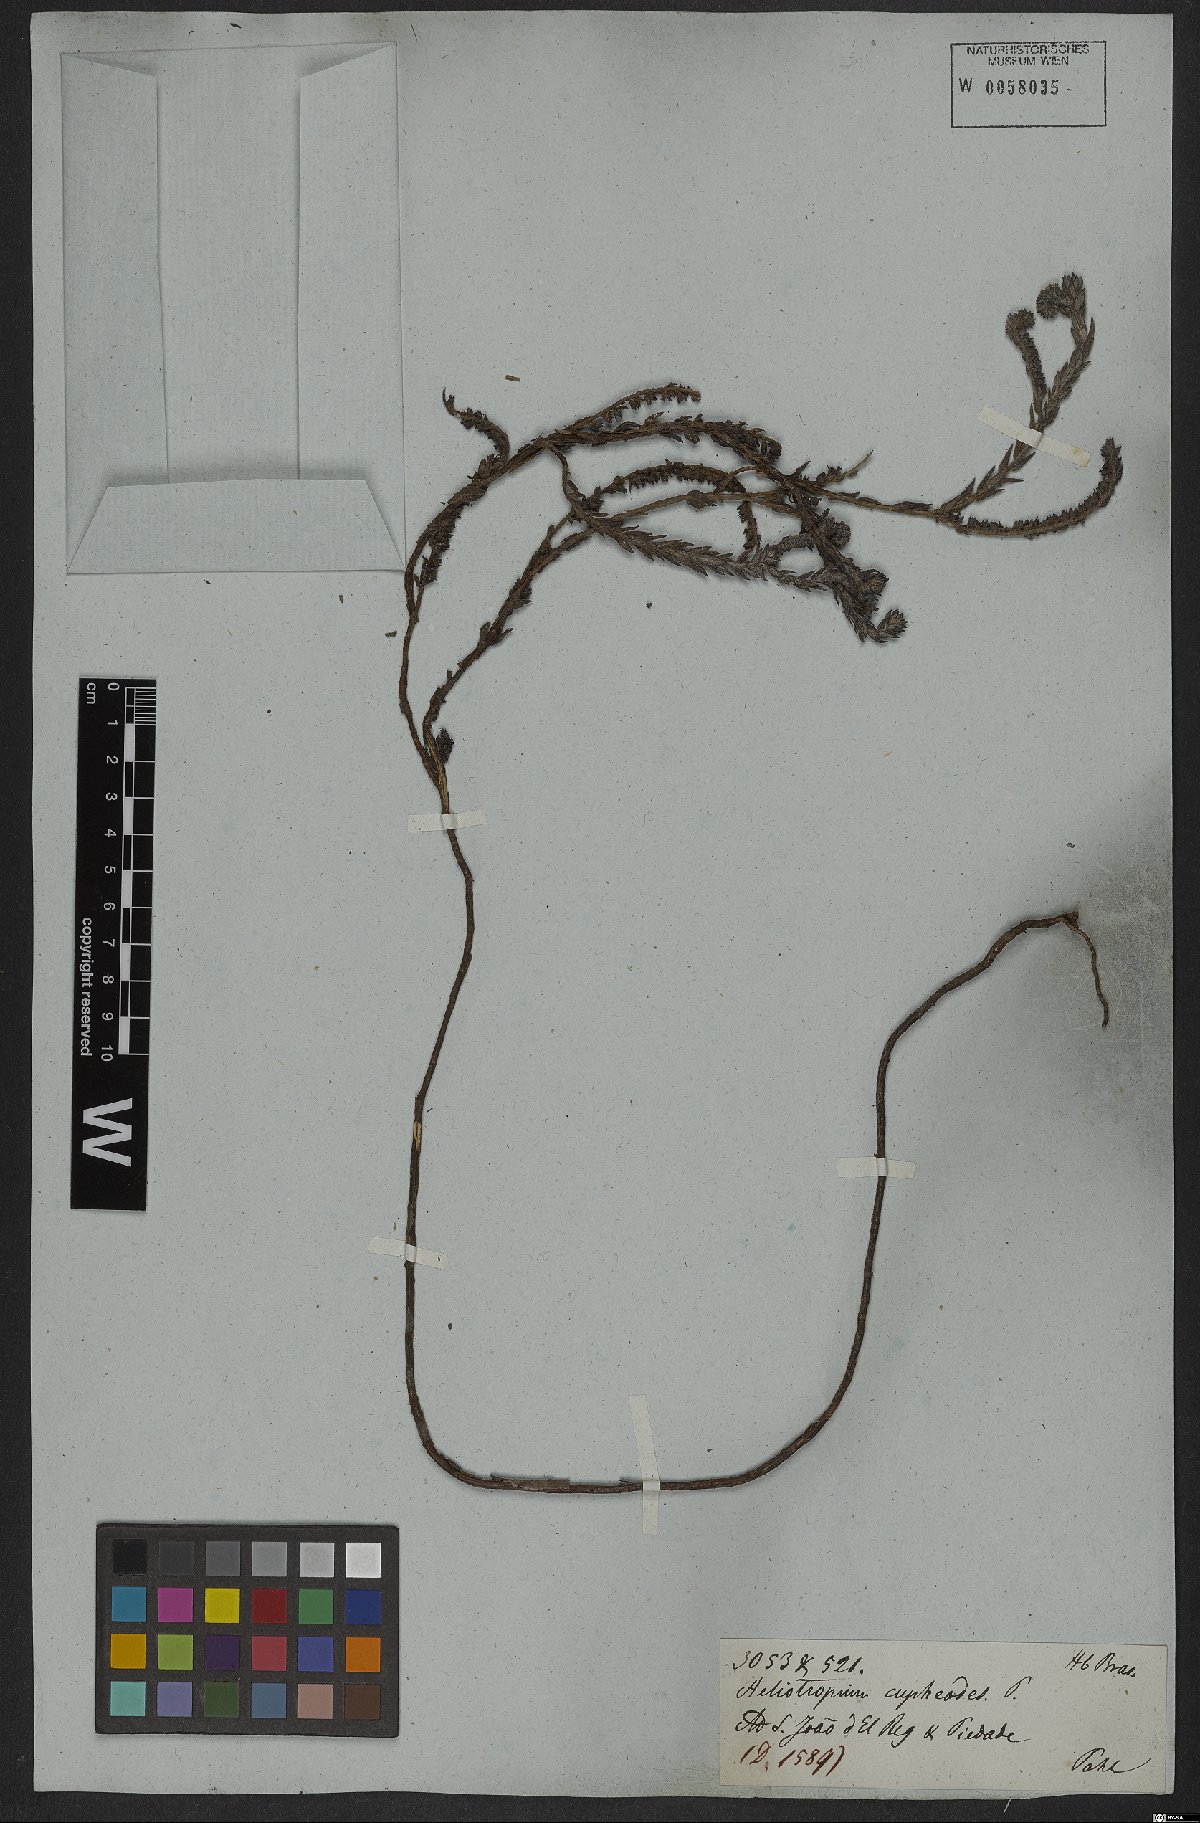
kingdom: Plantae
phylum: Tracheophyta
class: Magnoliopsida
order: Boraginales
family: Heliotropiaceae
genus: Heliotropium
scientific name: Heliotropium strictissimum
